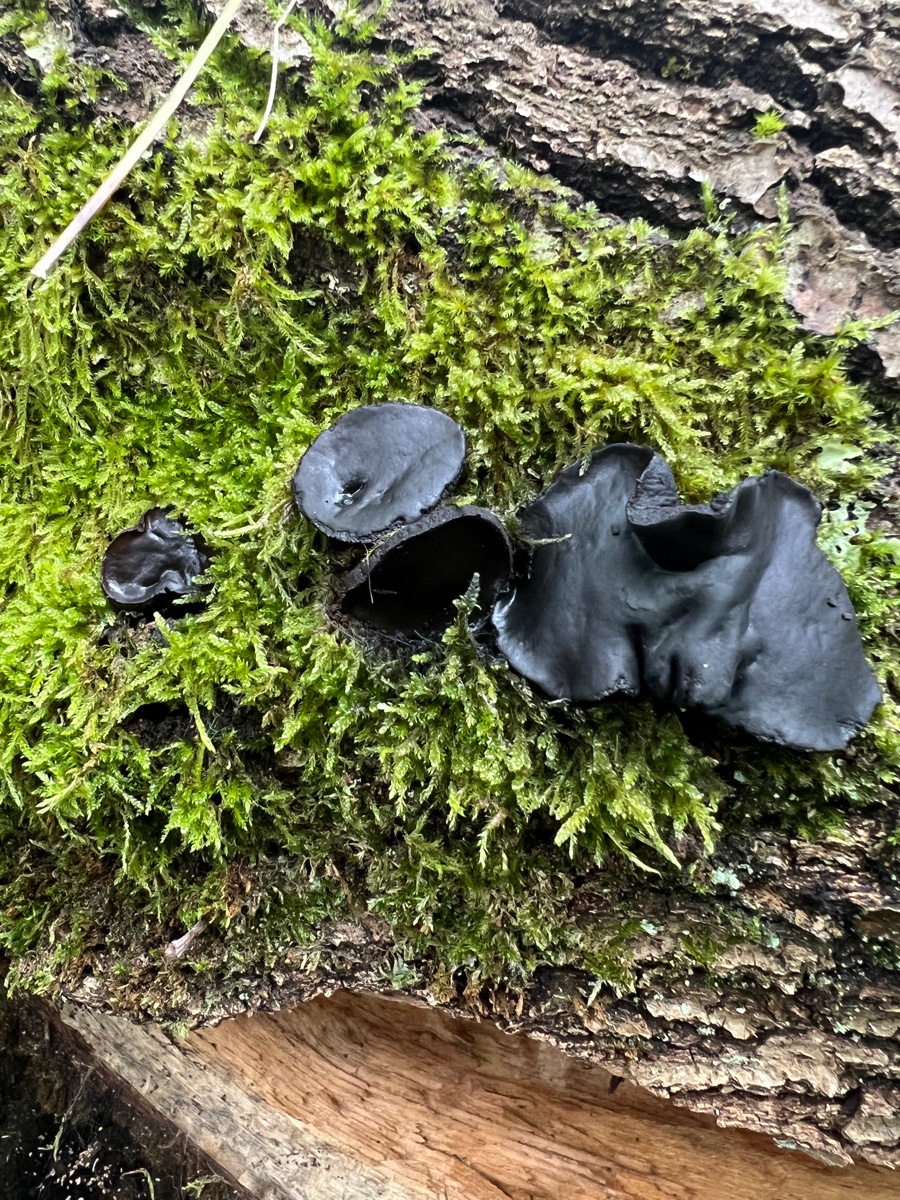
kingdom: Fungi
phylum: Ascomycota
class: Leotiomycetes
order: Phacidiales
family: Phacidiaceae
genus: Bulgaria
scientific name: Bulgaria inquinans
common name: afsmittende topsvamp
